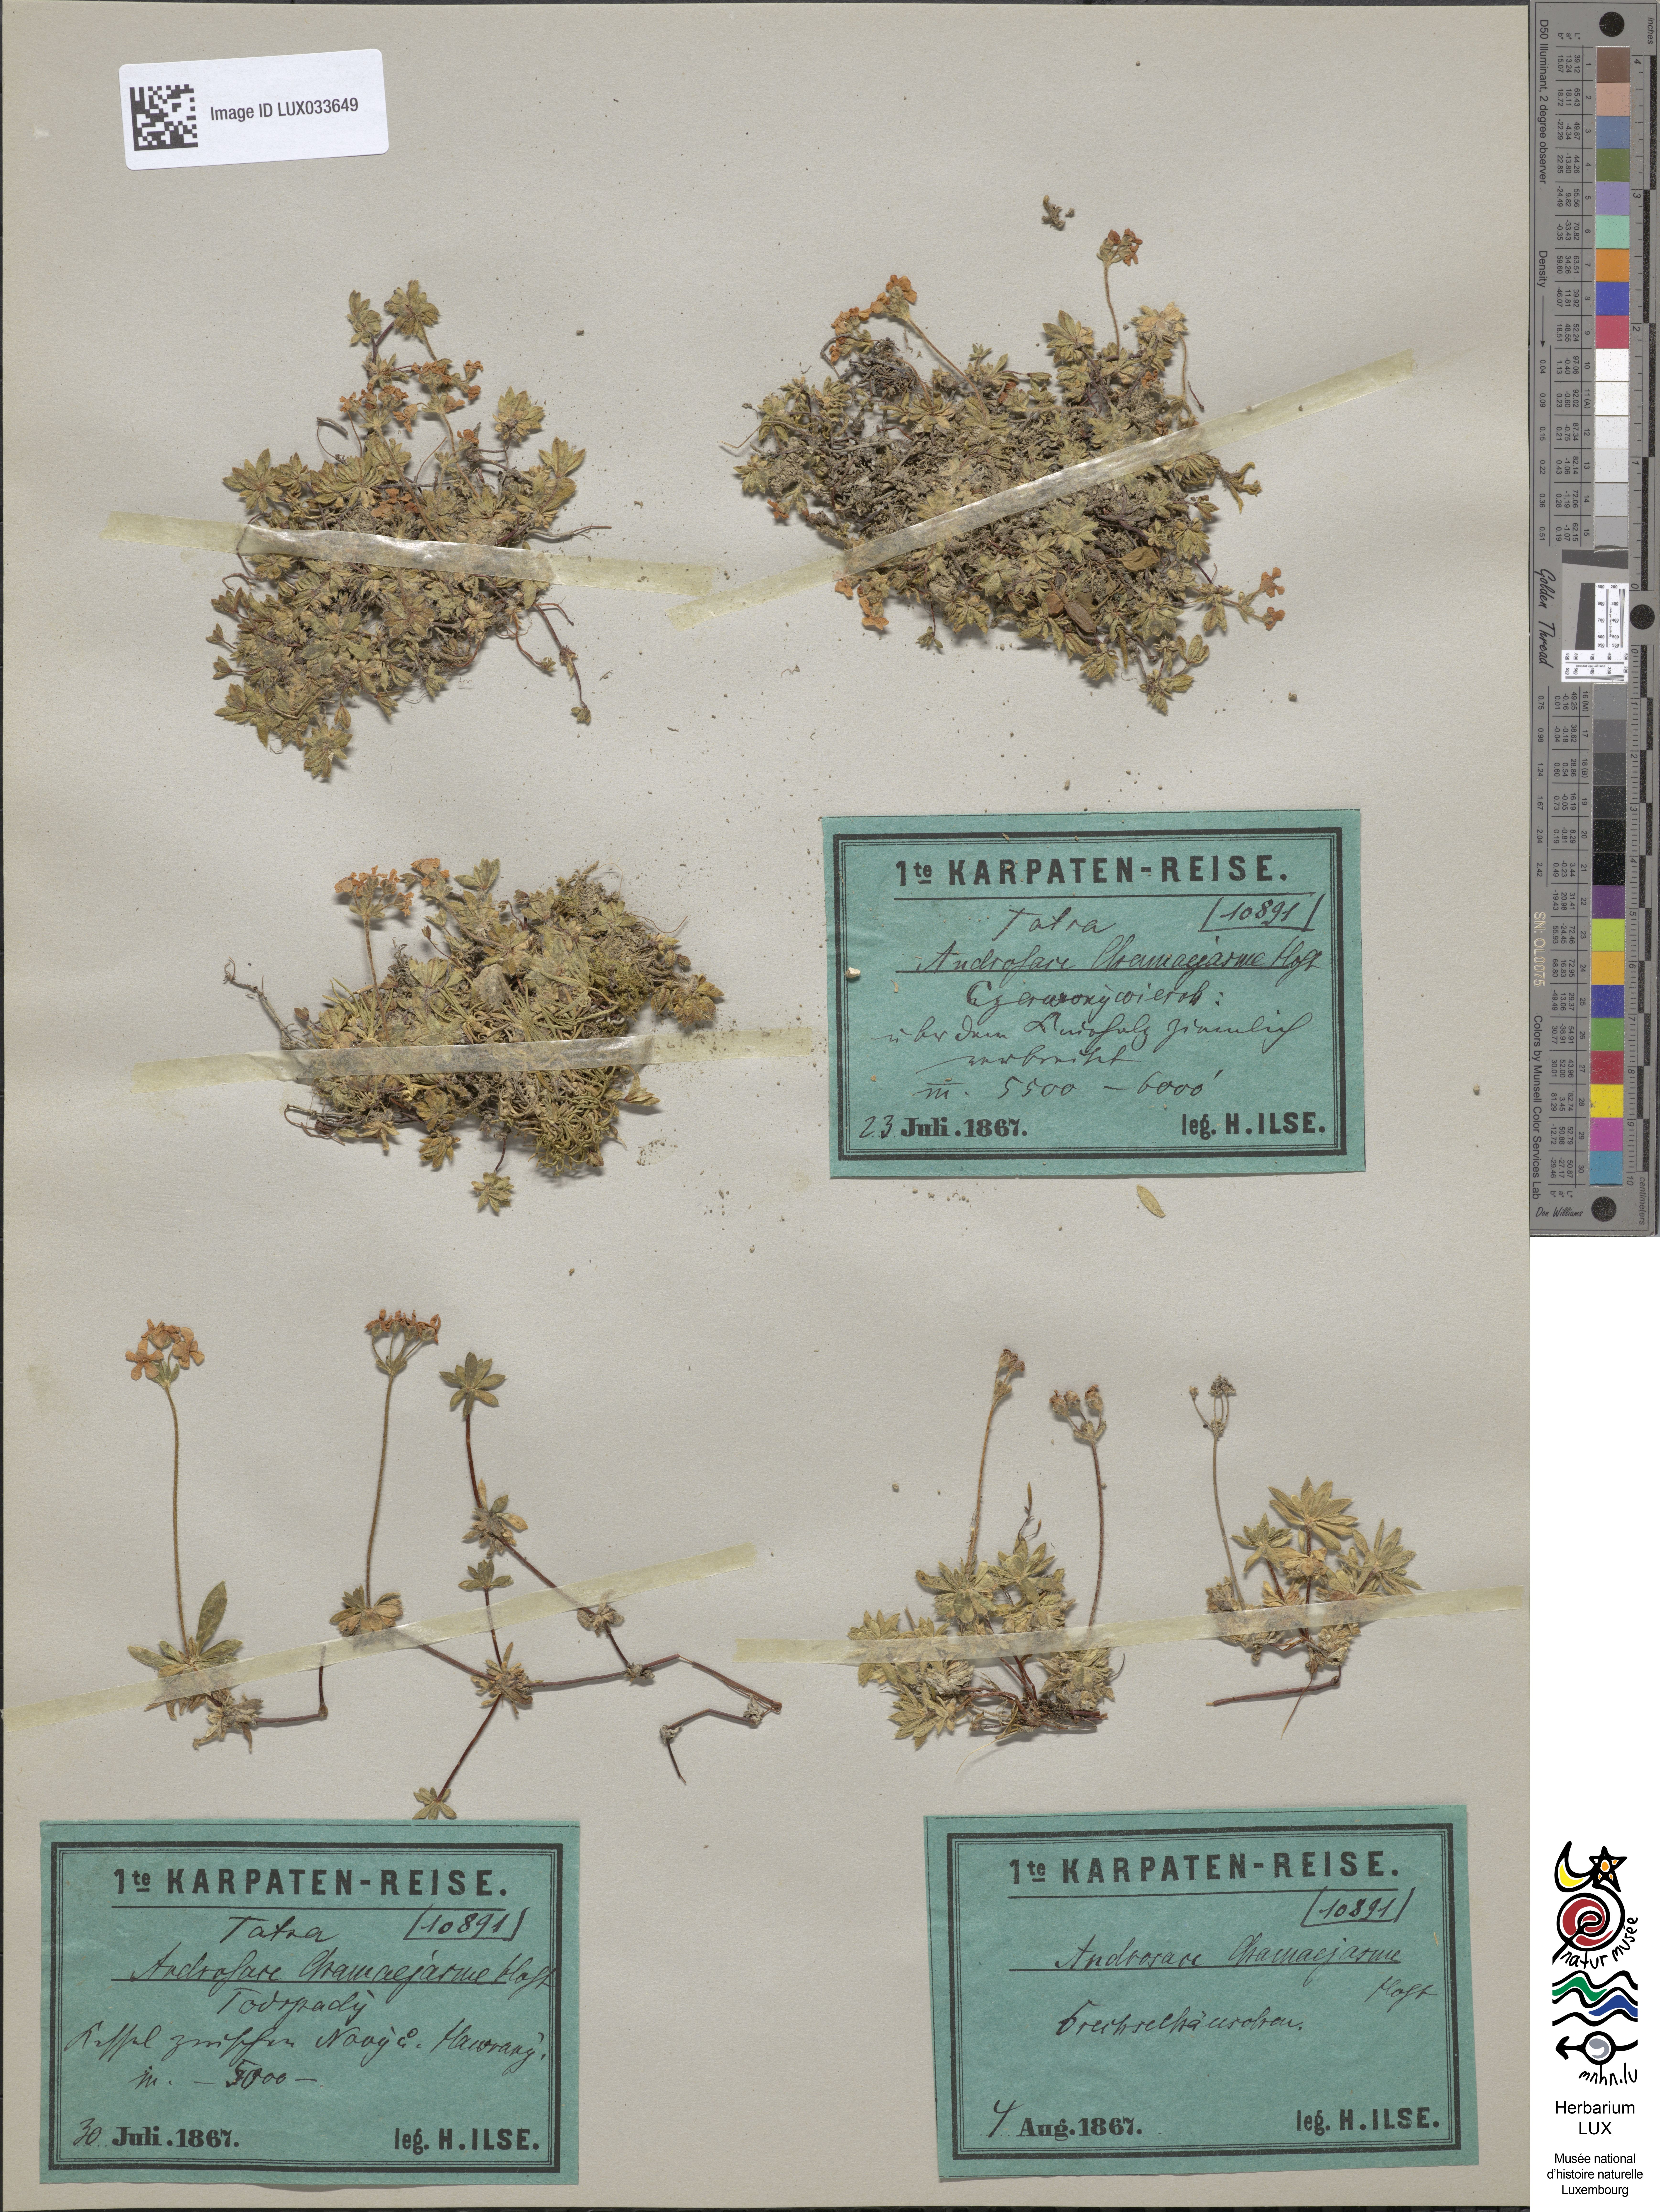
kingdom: Plantae
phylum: Tracheophyta
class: Magnoliopsida
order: Ericales
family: Primulaceae
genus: Androsace
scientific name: Androsace chamaejasme
